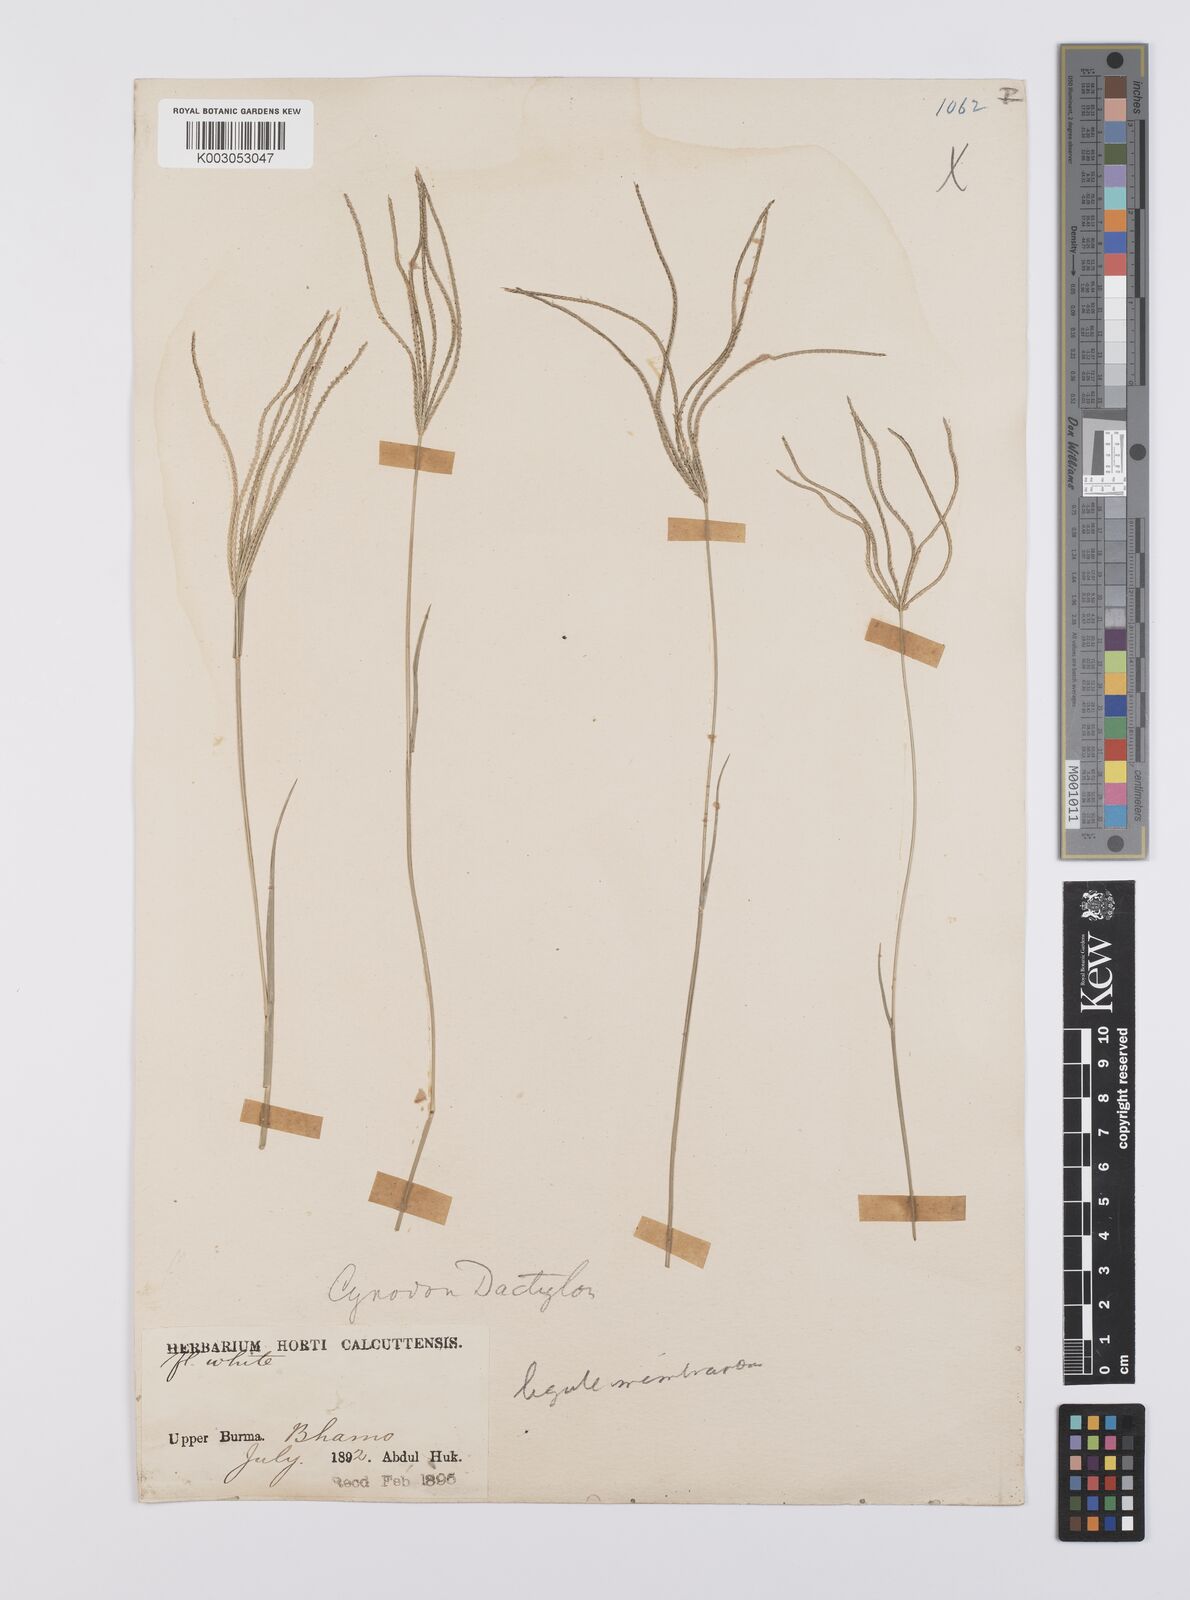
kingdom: Plantae
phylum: Tracheophyta
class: Liliopsida
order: Poales
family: Poaceae
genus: Cynodon
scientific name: Cynodon radiatus
